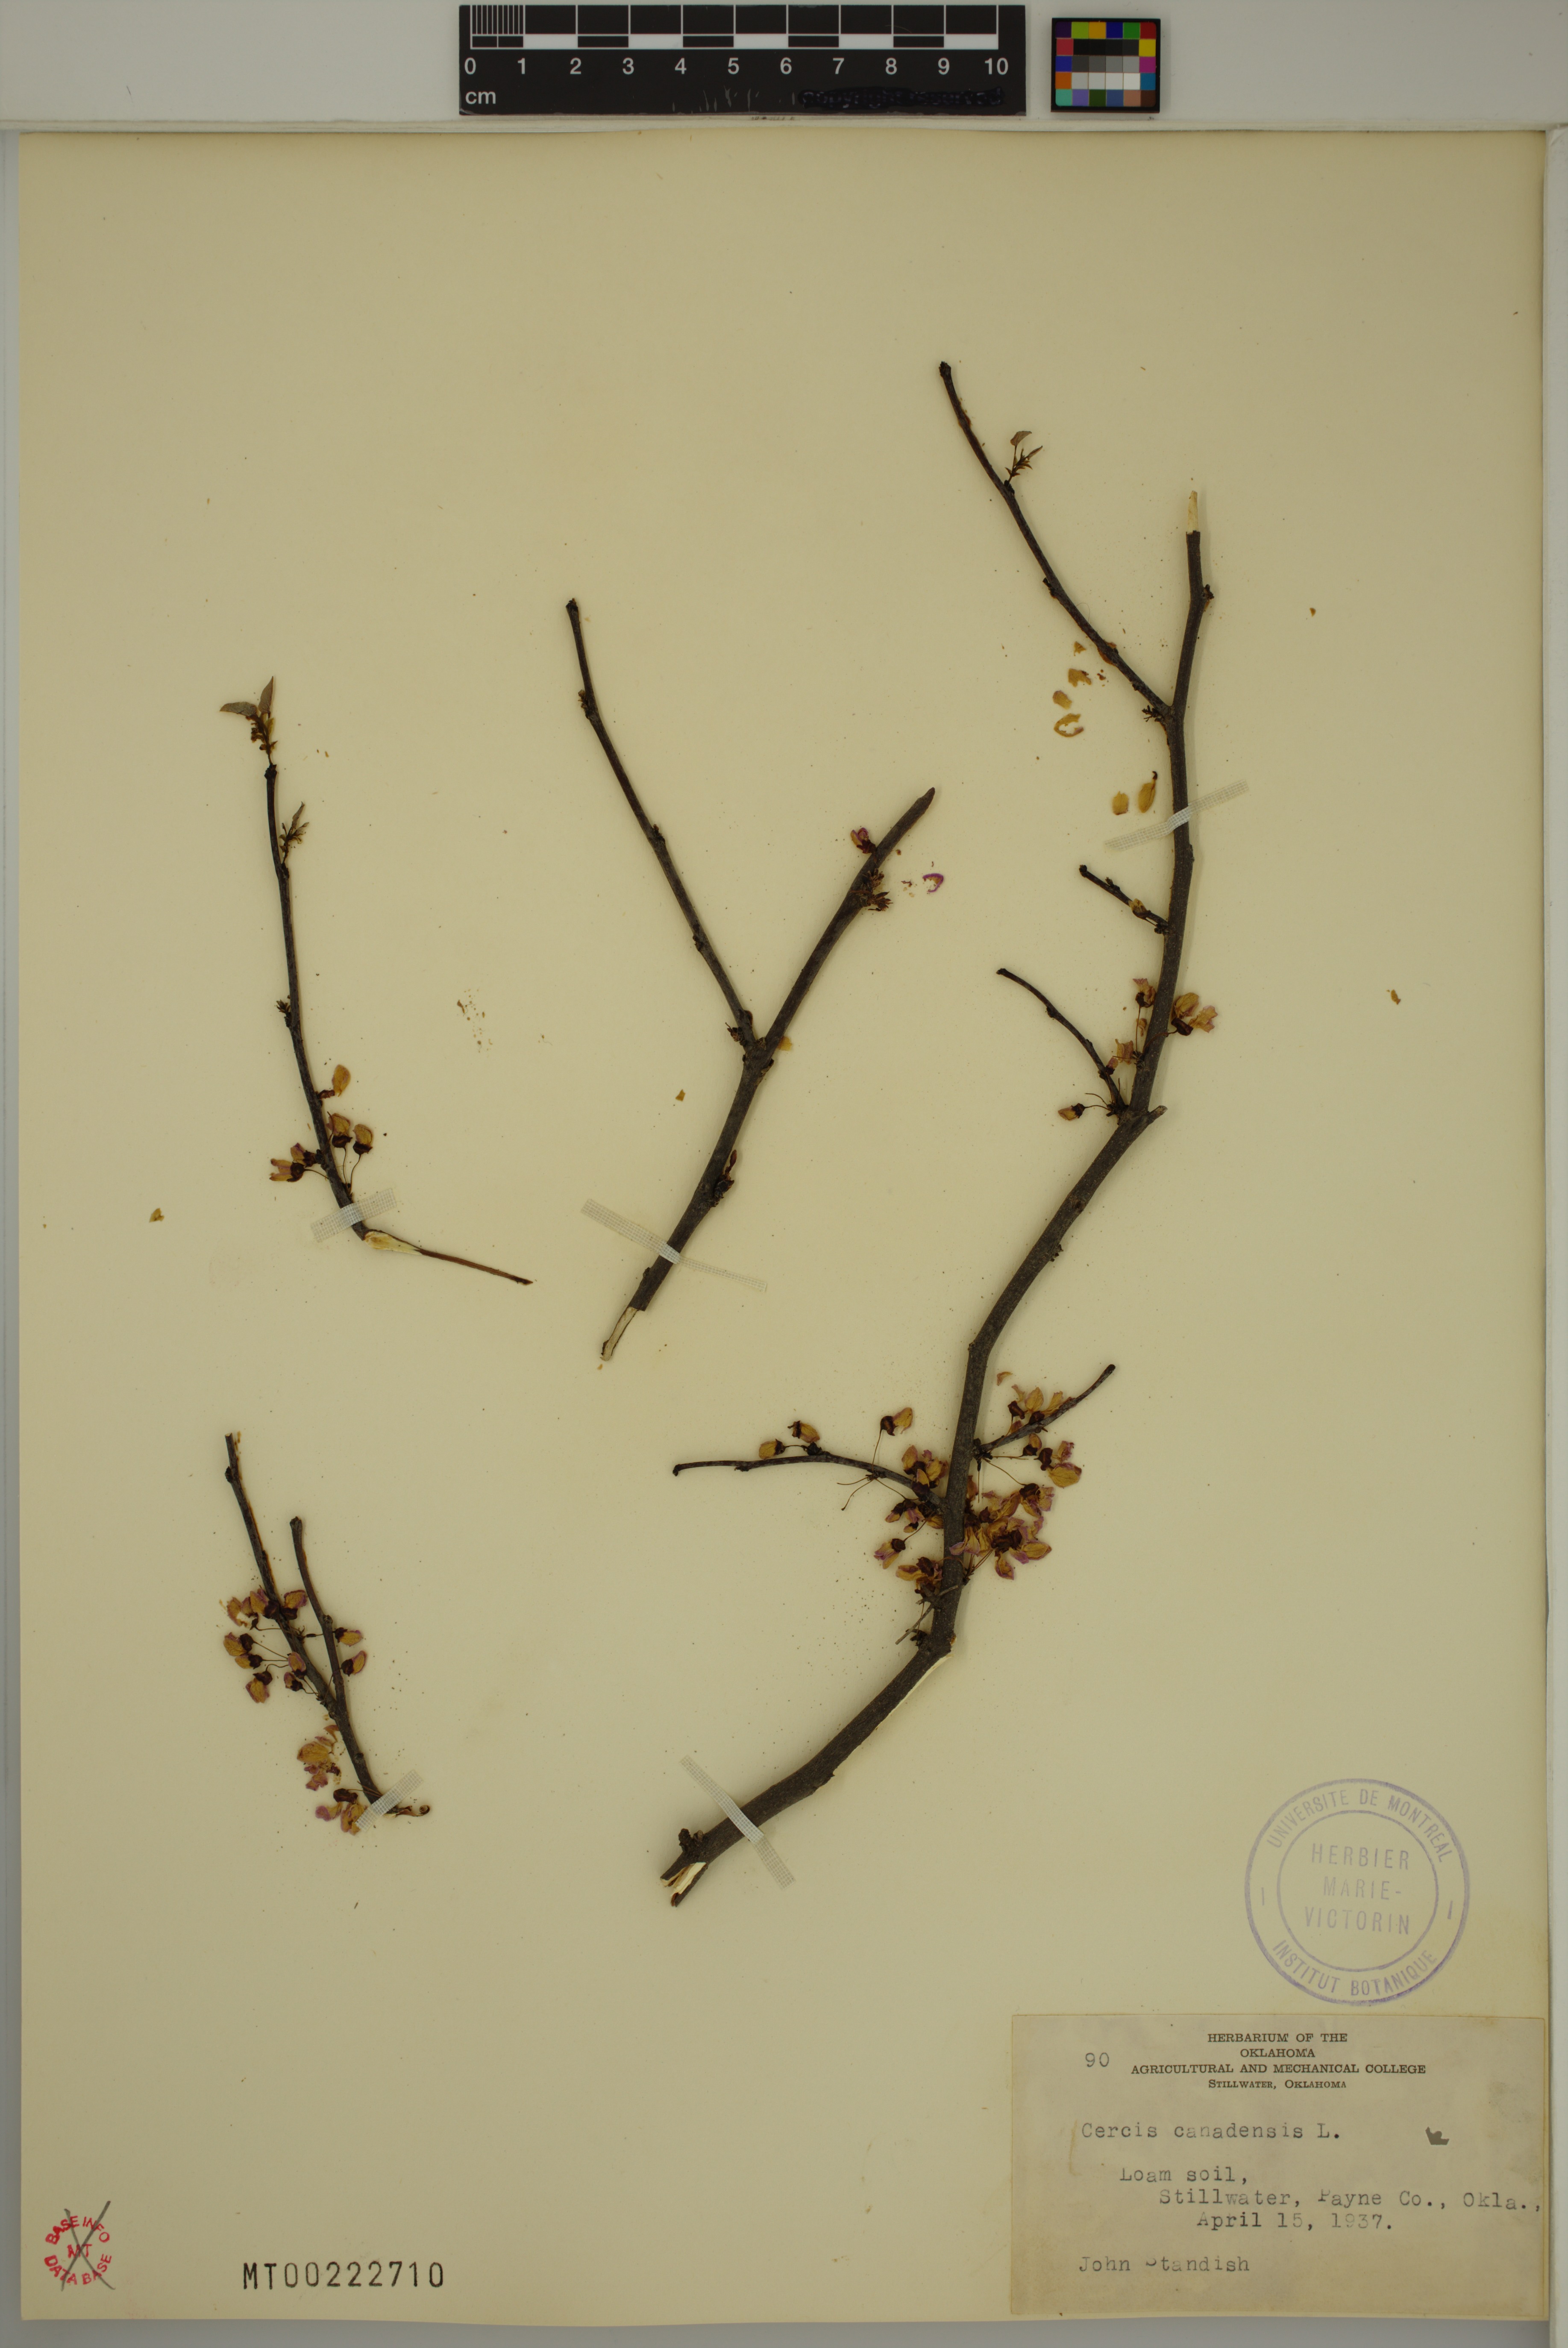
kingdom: Plantae
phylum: Tracheophyta
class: Magnoliopsida
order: Fabales
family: Fabaceae
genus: Cercis
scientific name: Cercis canadensis
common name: Eastern redbud
